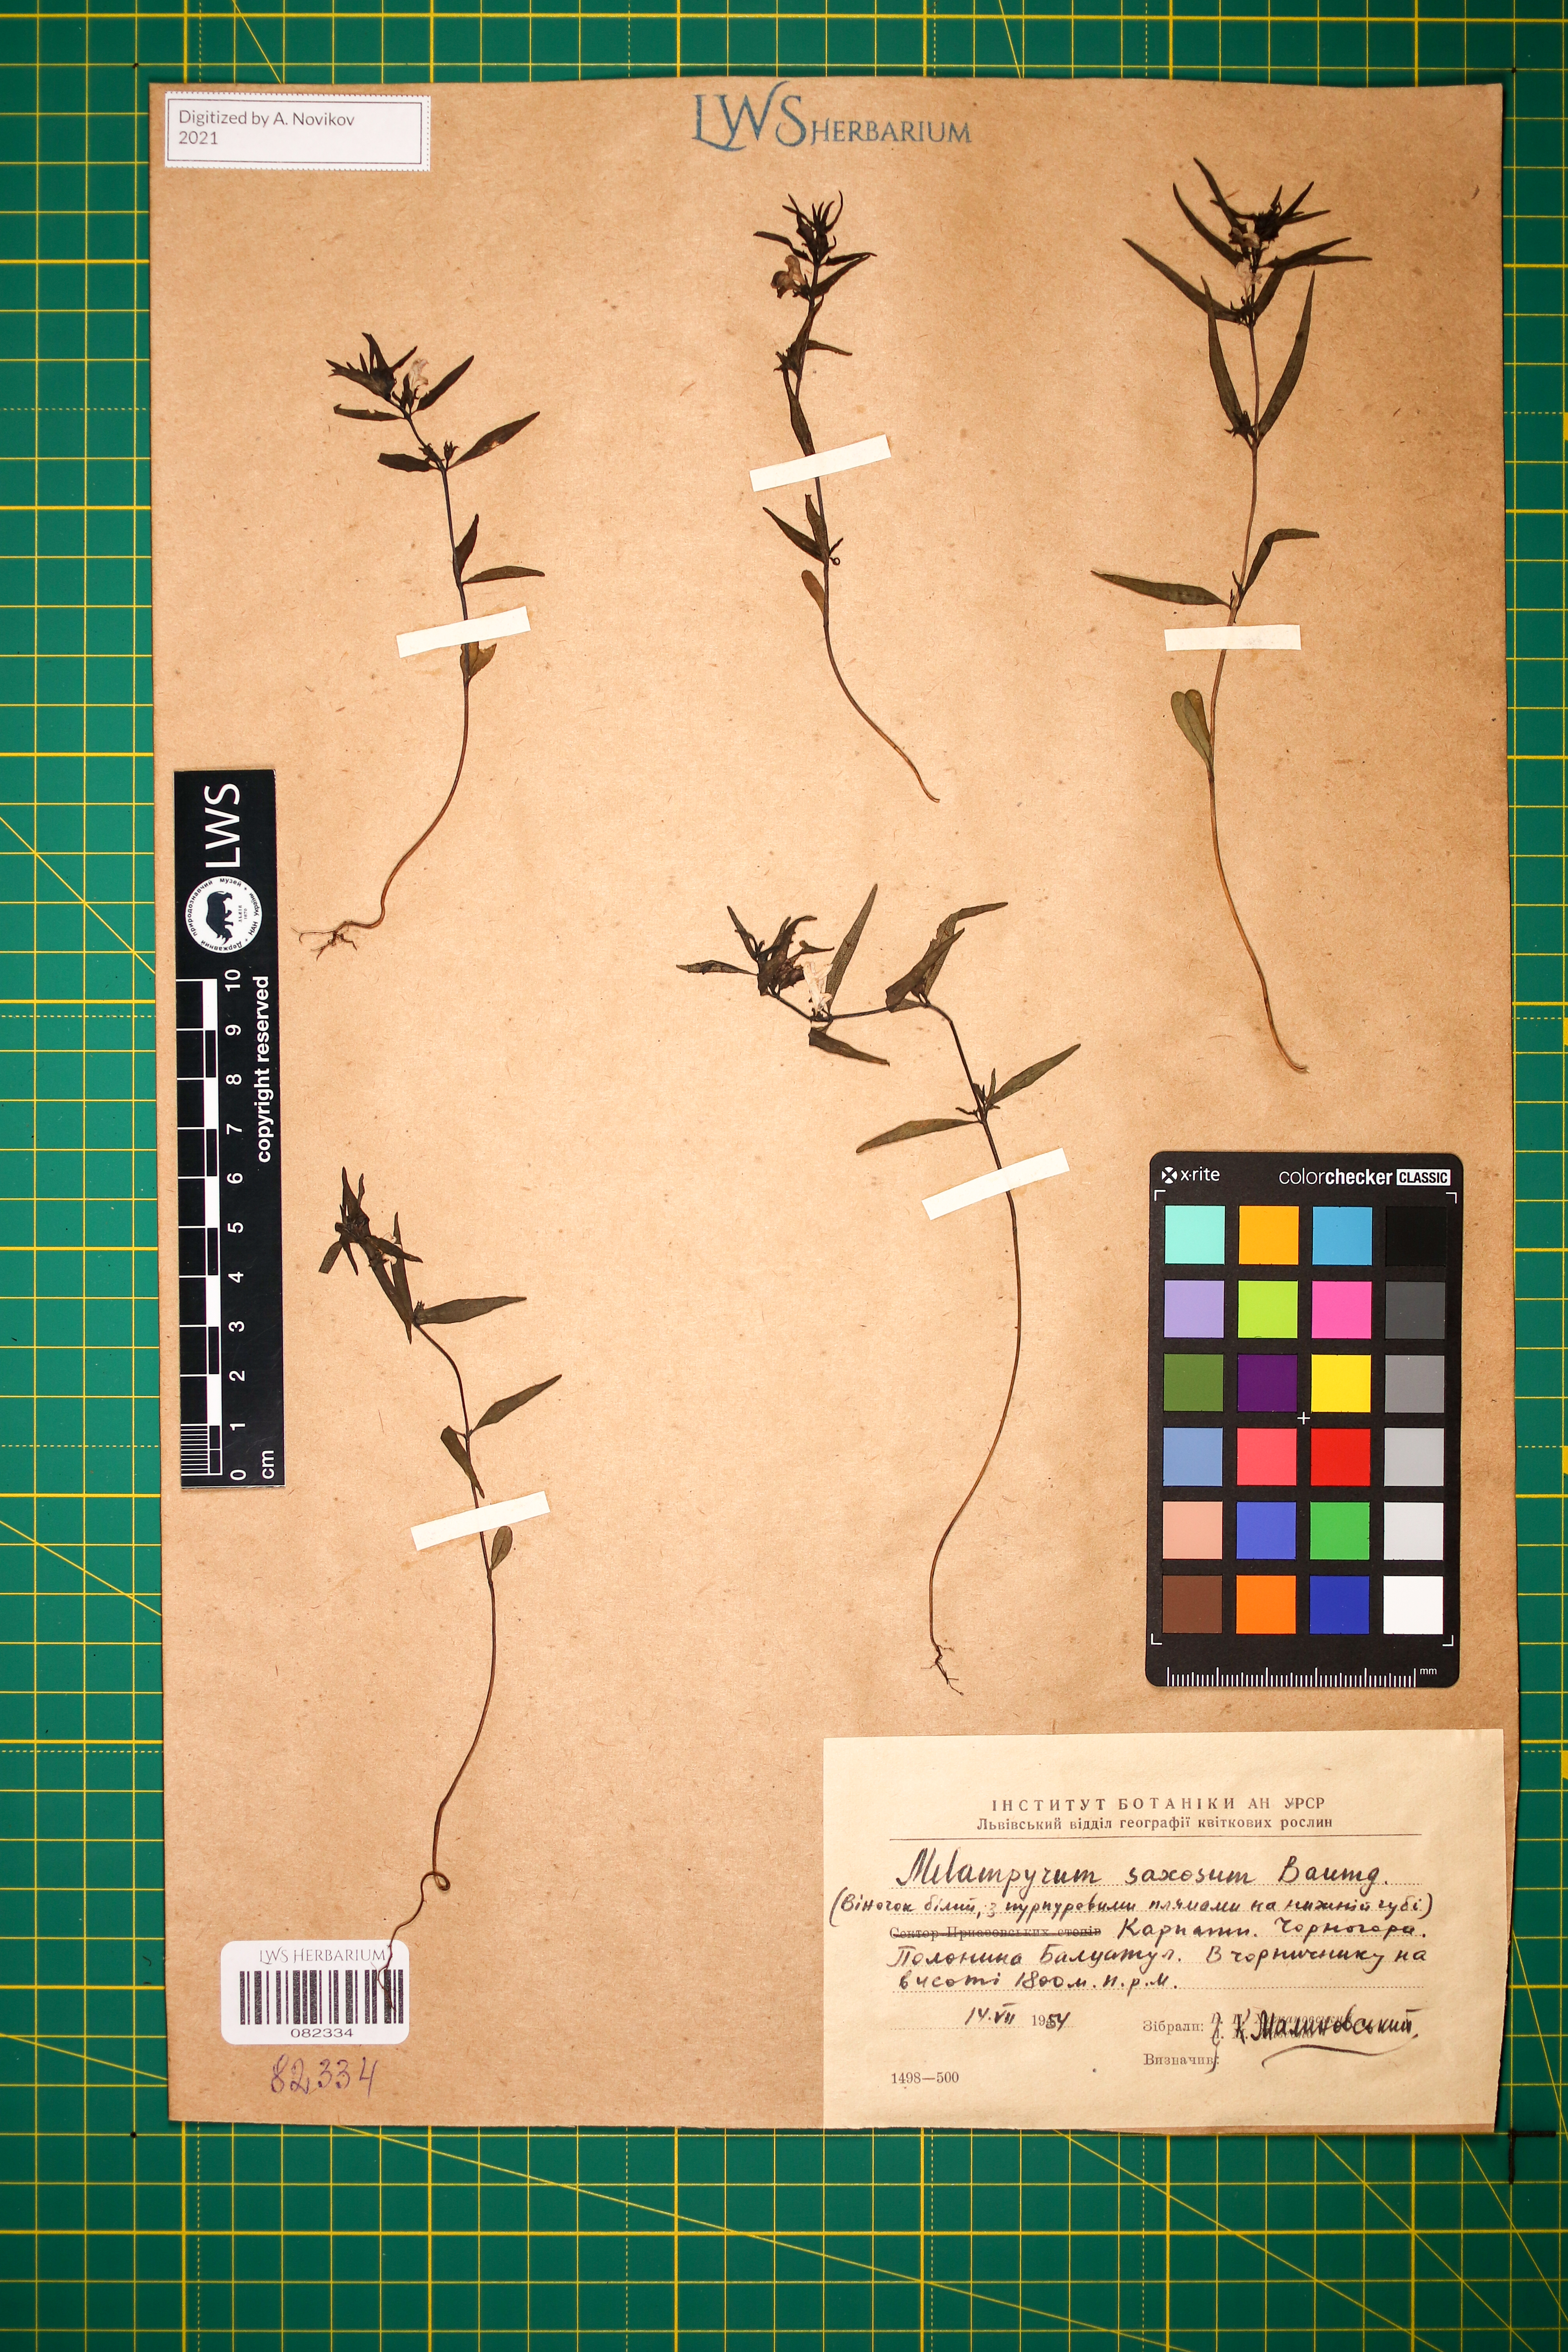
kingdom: Plantae
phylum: Tracheophyta
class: Magnoliopsida
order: Lamiales
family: Orobanchaceae
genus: Melampyrum
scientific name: Melampyrum saxosum
